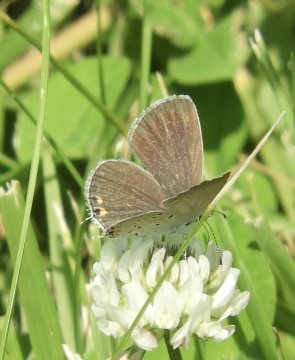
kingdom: Animalia
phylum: Arthropoda
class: Insecta
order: Lepidoptera
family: Lycaenidae
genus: Elkalyce
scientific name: Elkalyce comyntas
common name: Eastern Tailed-Blue
